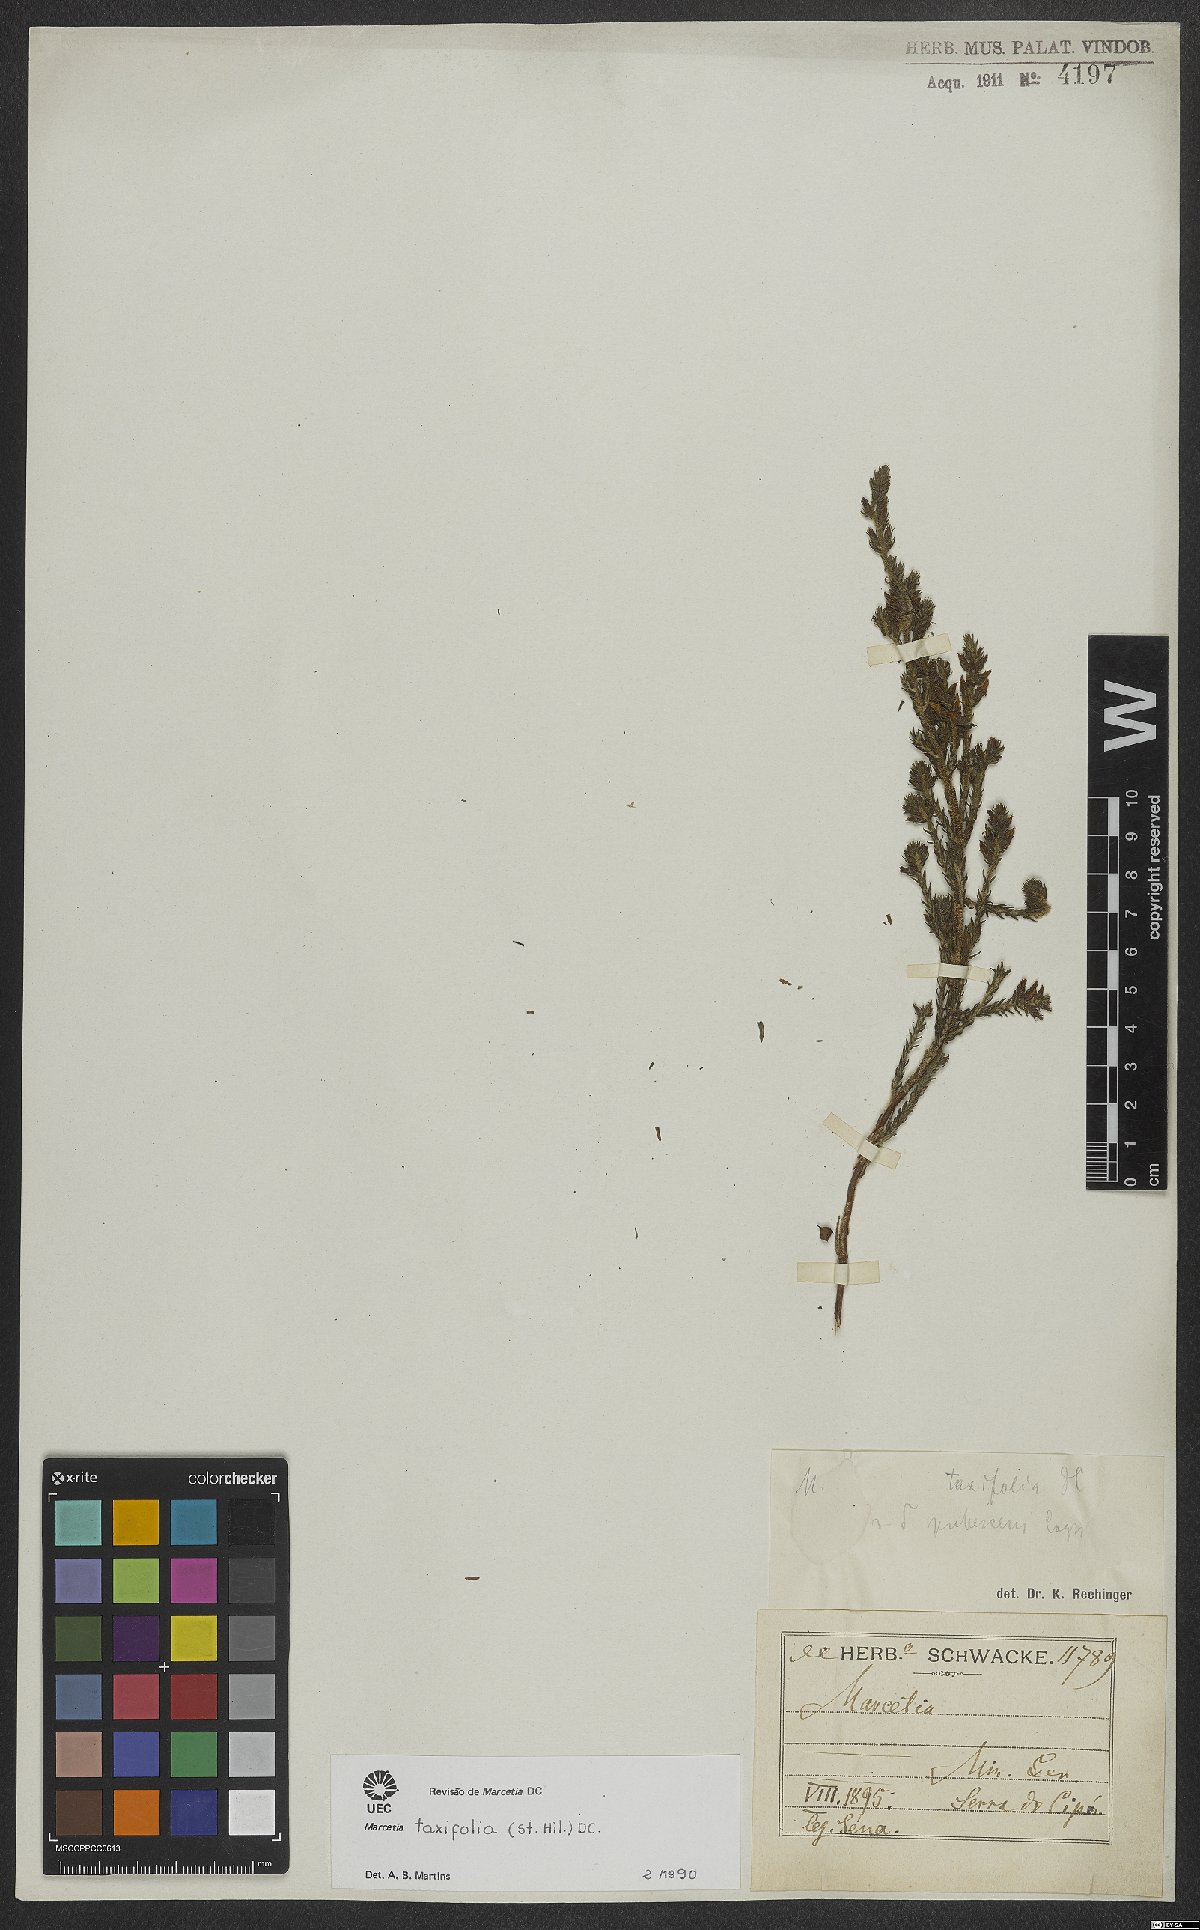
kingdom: Plantae
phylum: Tracheophyta
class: Magnoliopsida
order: Myrtales
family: Melastomataceae
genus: Marcetia
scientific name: Marcetia taxifolia
